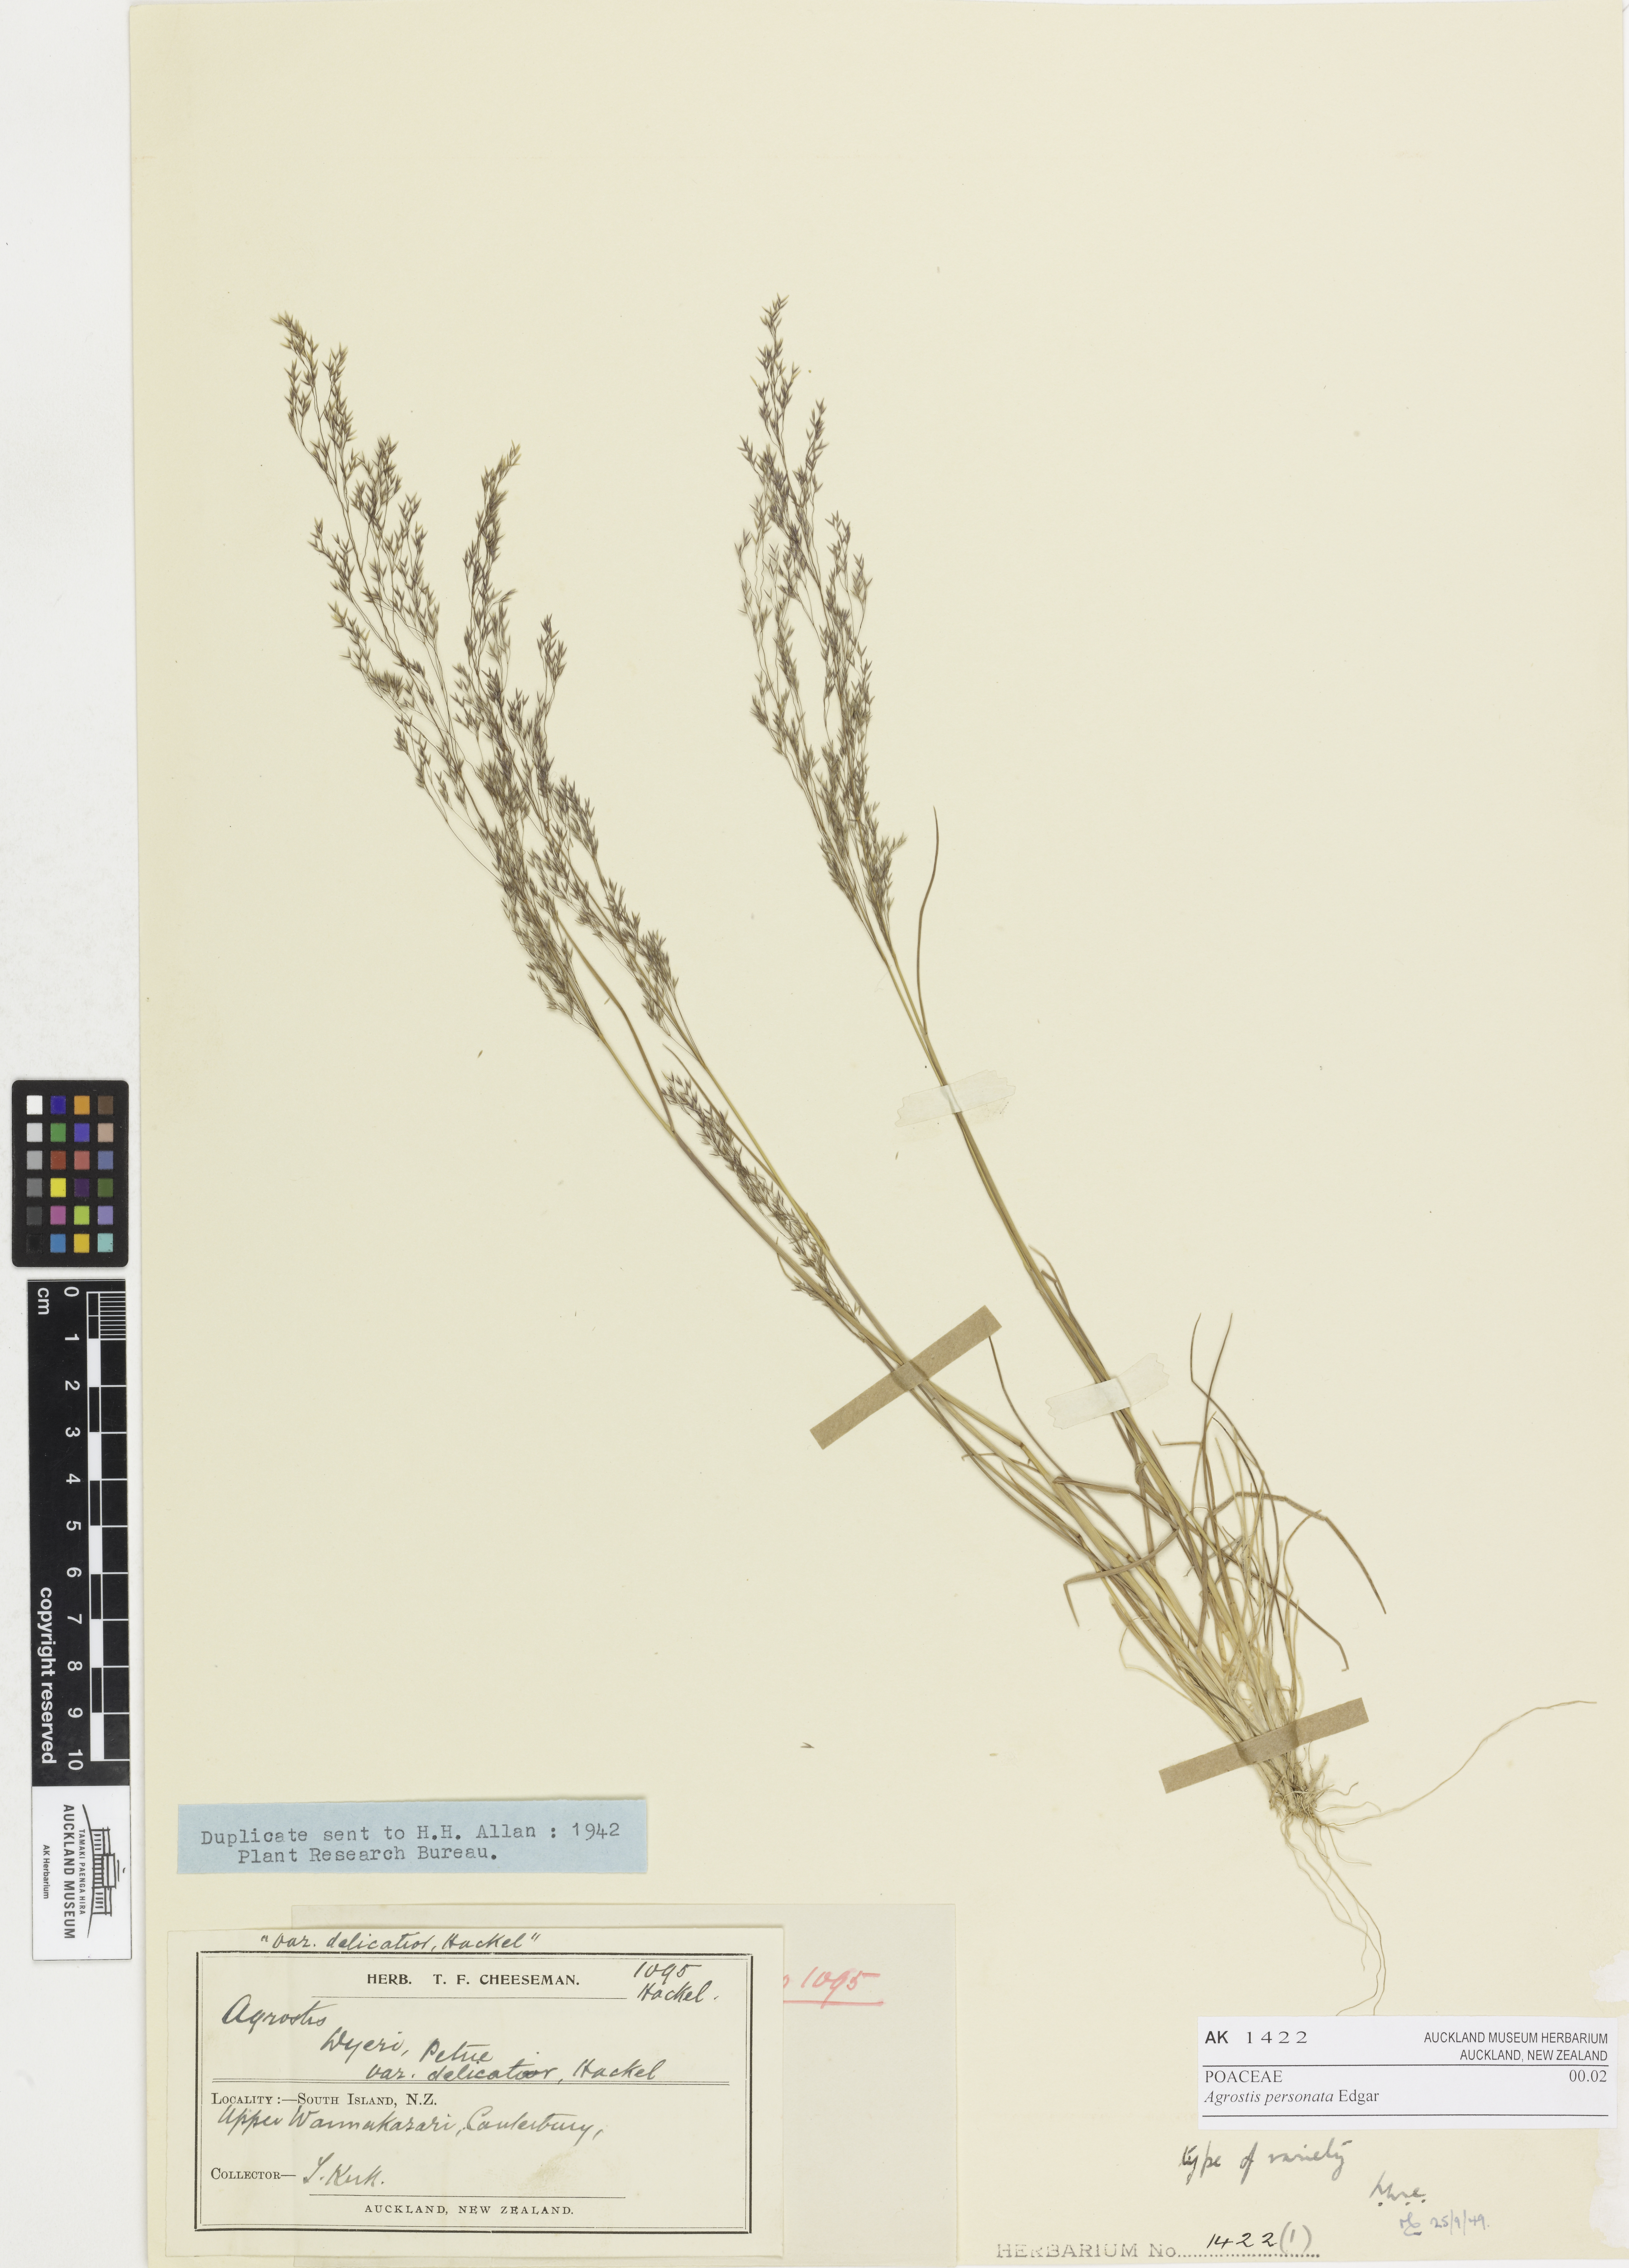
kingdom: Plantae
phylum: Tracheophyta
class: Liliopsida
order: Poales
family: Poaceae
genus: Agrostis
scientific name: Agrostis personata
